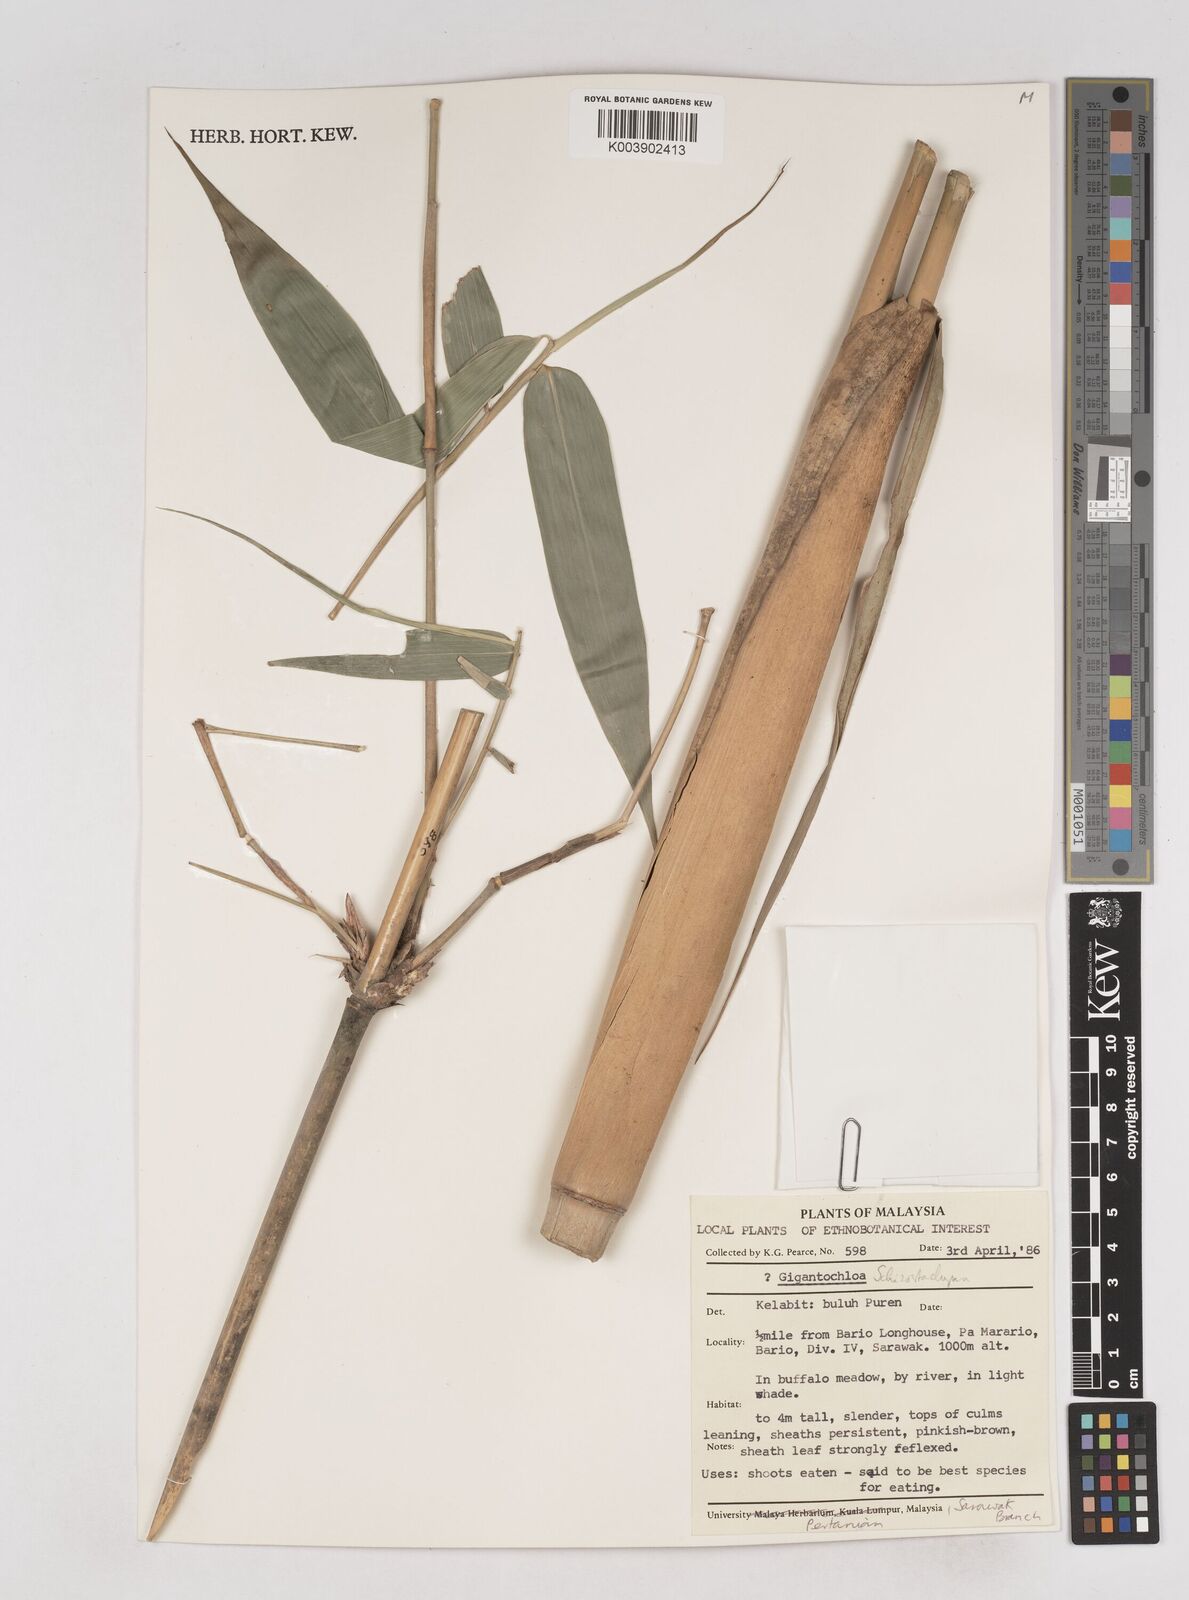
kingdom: Plantae
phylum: Tracheophyta
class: Liliopsida
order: Poales
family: Poaceae
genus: Schizostachyum
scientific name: Schizostachyum
